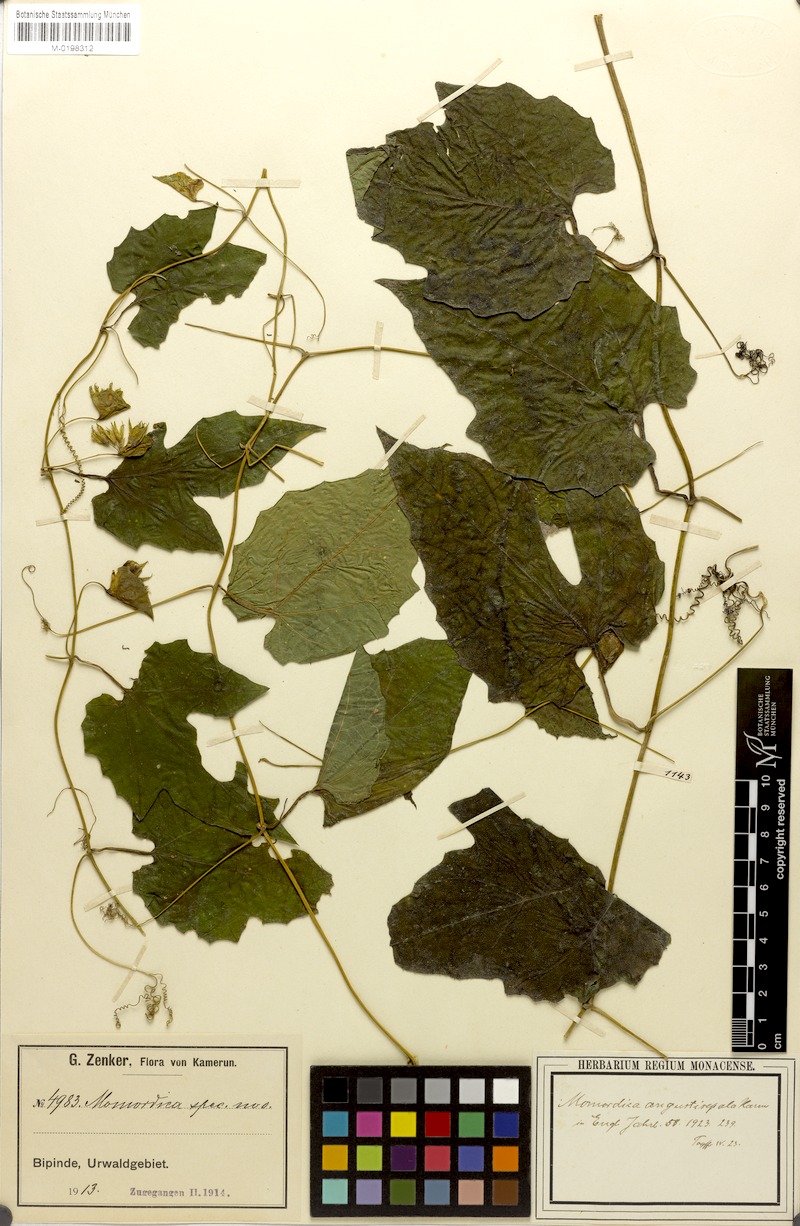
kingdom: Plantae
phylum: Tracheophyta
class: Magnoliopsida
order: Cucurbitales
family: Cucurbitaceae
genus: Momordica
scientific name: Momordica angustisepala
